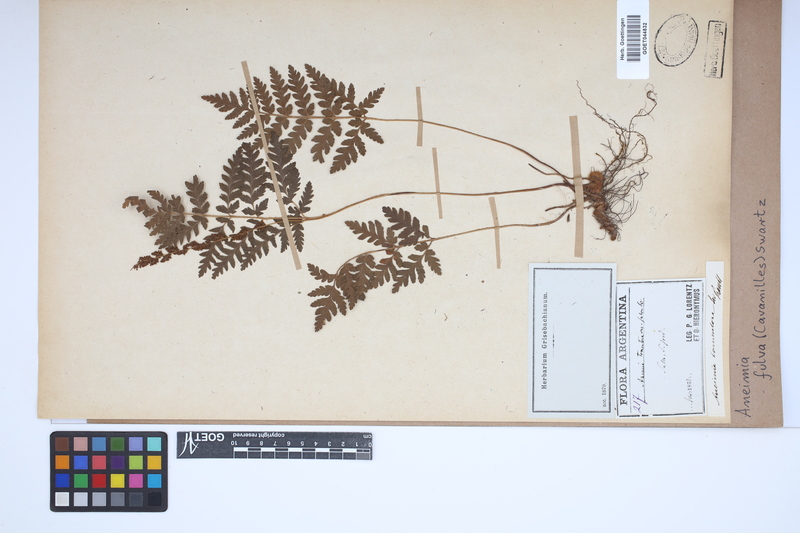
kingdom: Plantae
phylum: Tracheophyta
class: Polypodiopsida
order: Schizaeales
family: Anemiaceae
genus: Anemia
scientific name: Anemia ferruginea
